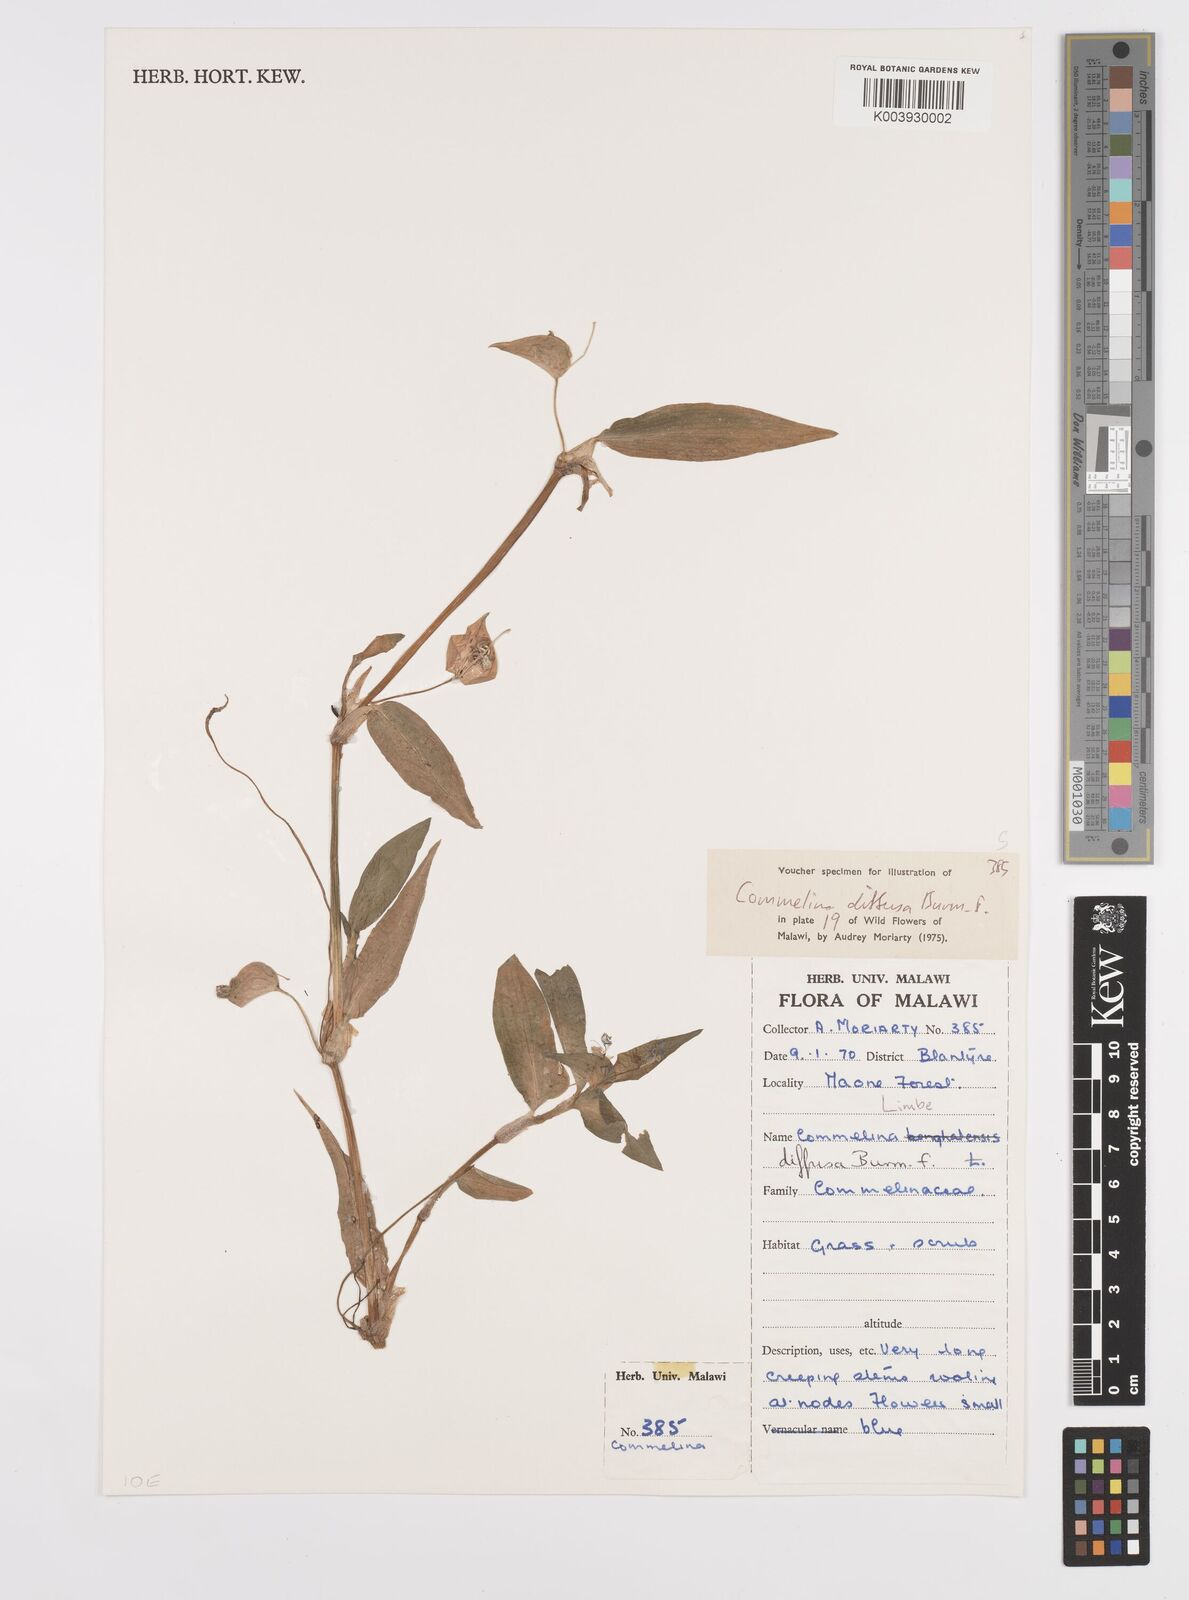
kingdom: Plantae
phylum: Tracheophyta
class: Liliopsida
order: Commelinales
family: Commelinaceae
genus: Commelina
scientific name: Commelina diffusa
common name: Climbing dayflower
